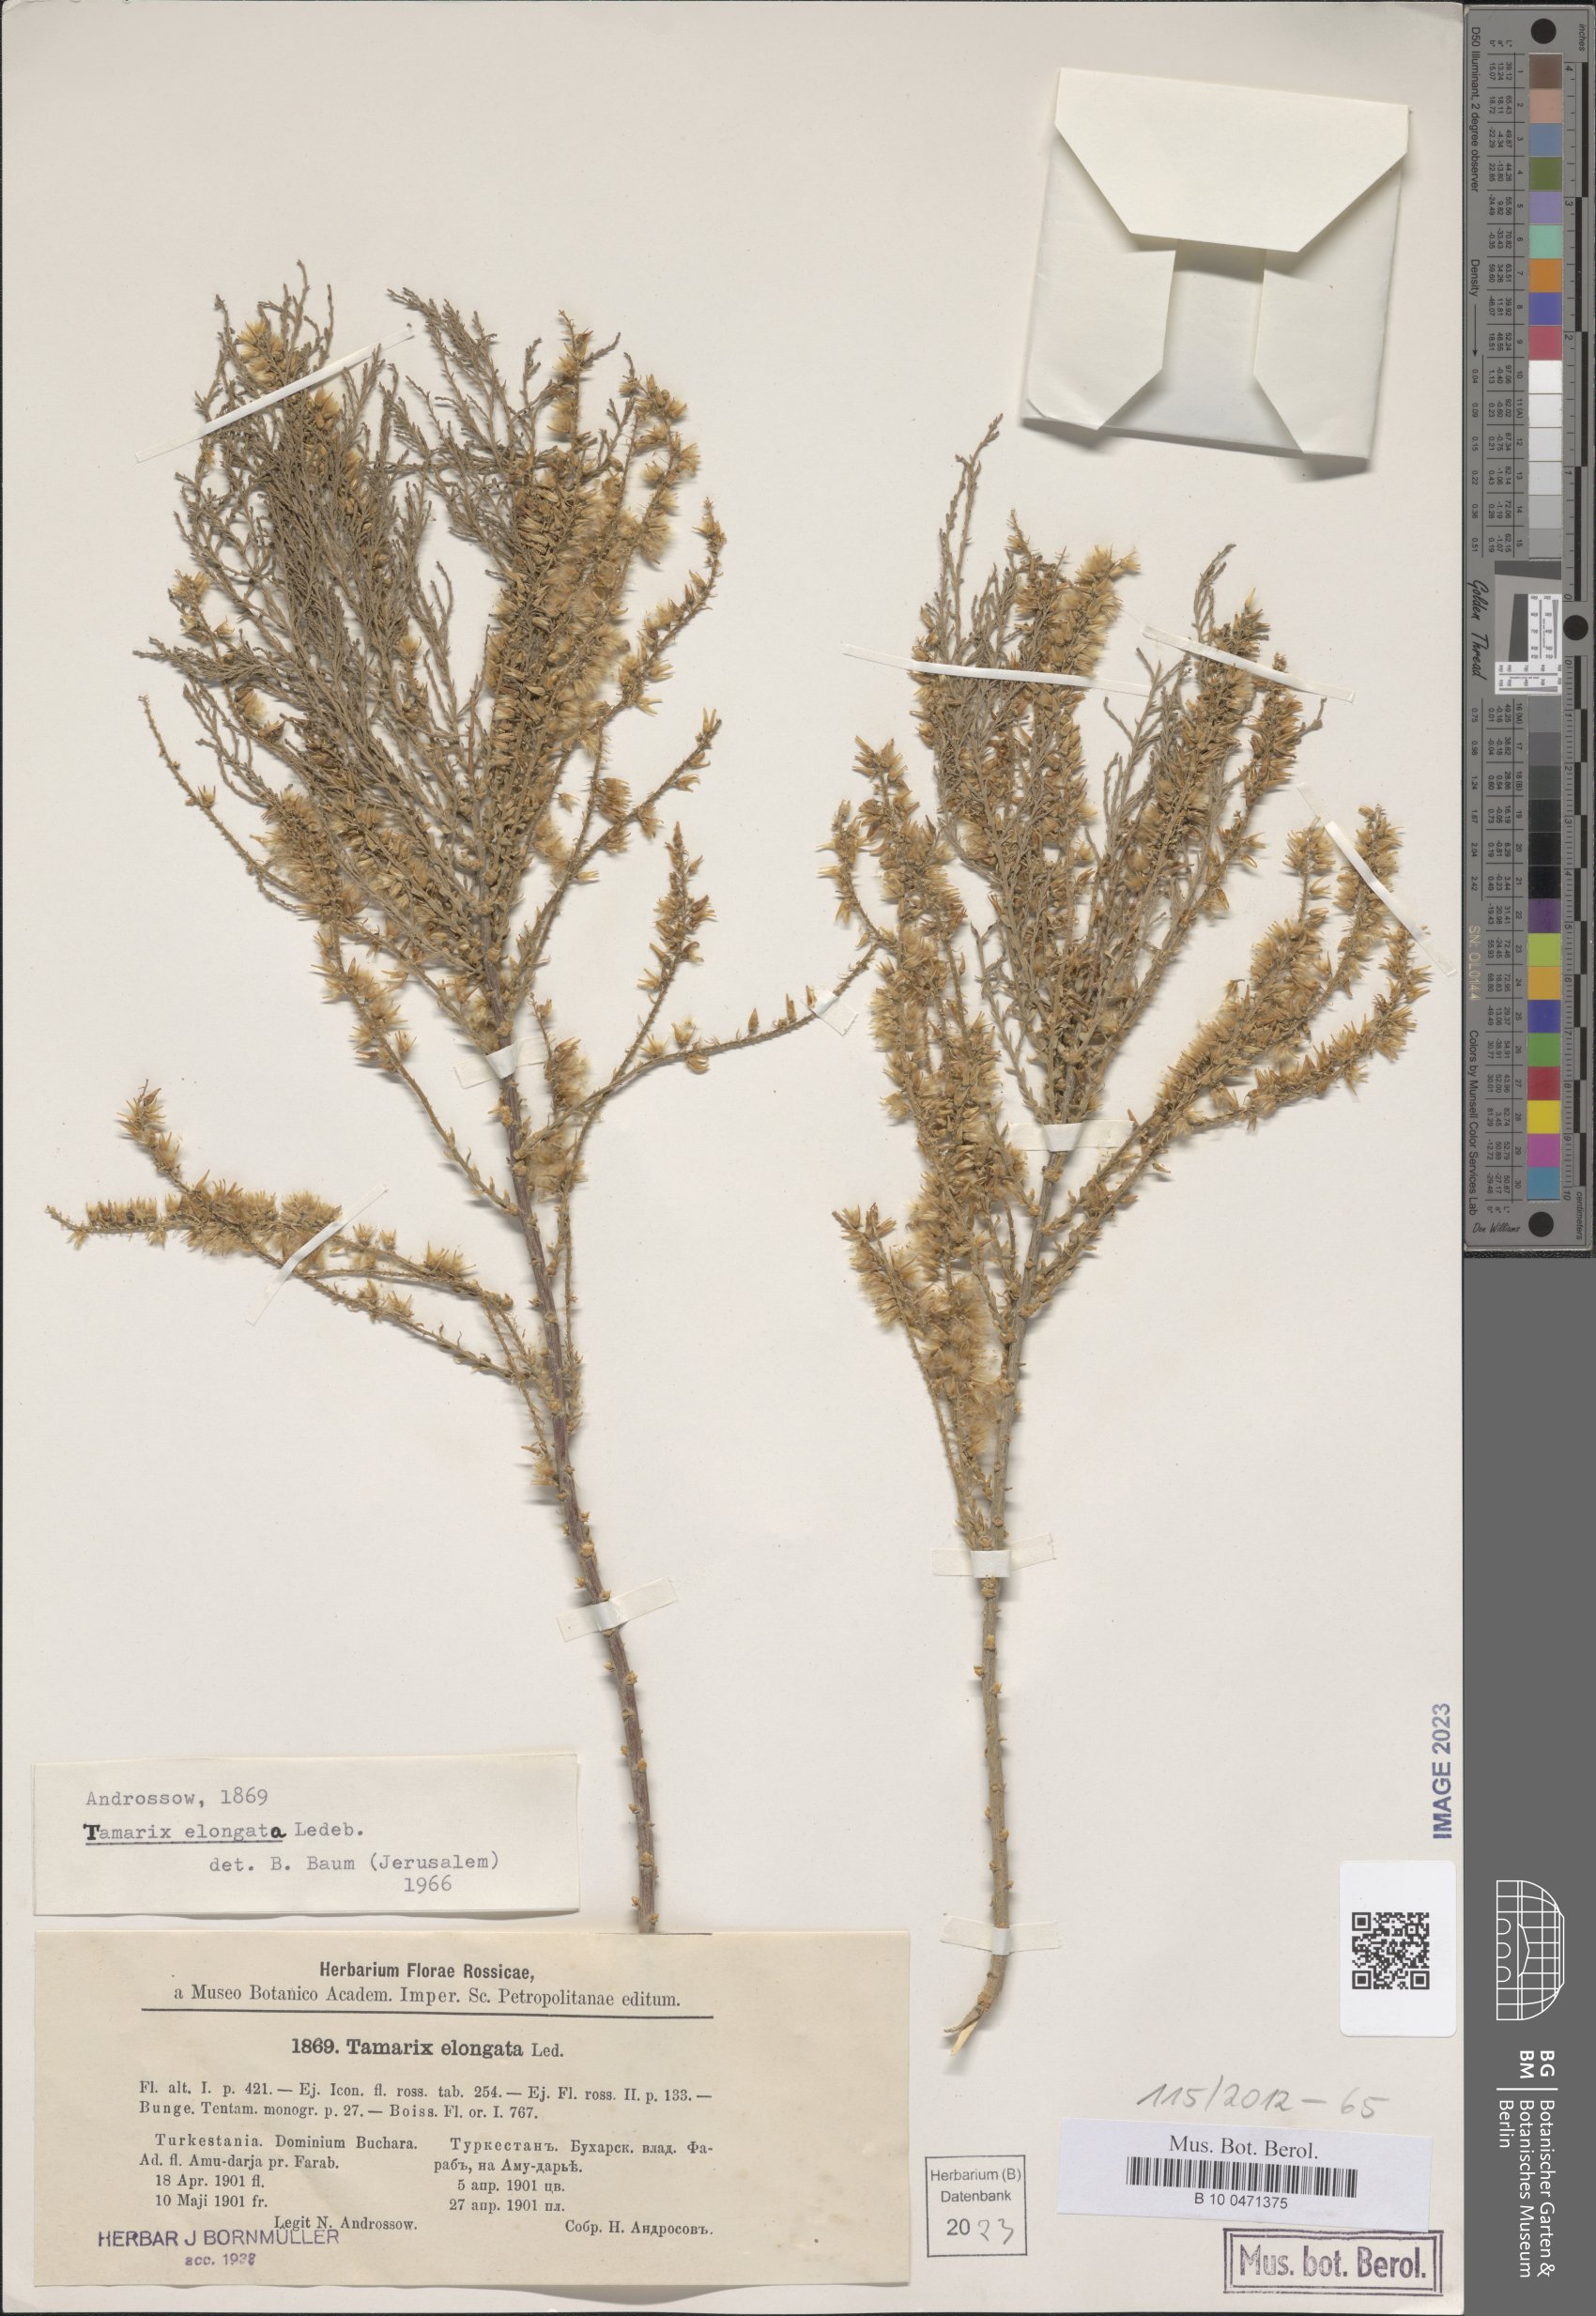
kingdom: Plantae
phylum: Tracheophyta
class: Magnoliopsida
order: Caryophyllales
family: Tamaricaceae
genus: Tamarix
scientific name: Tamarix elongata
